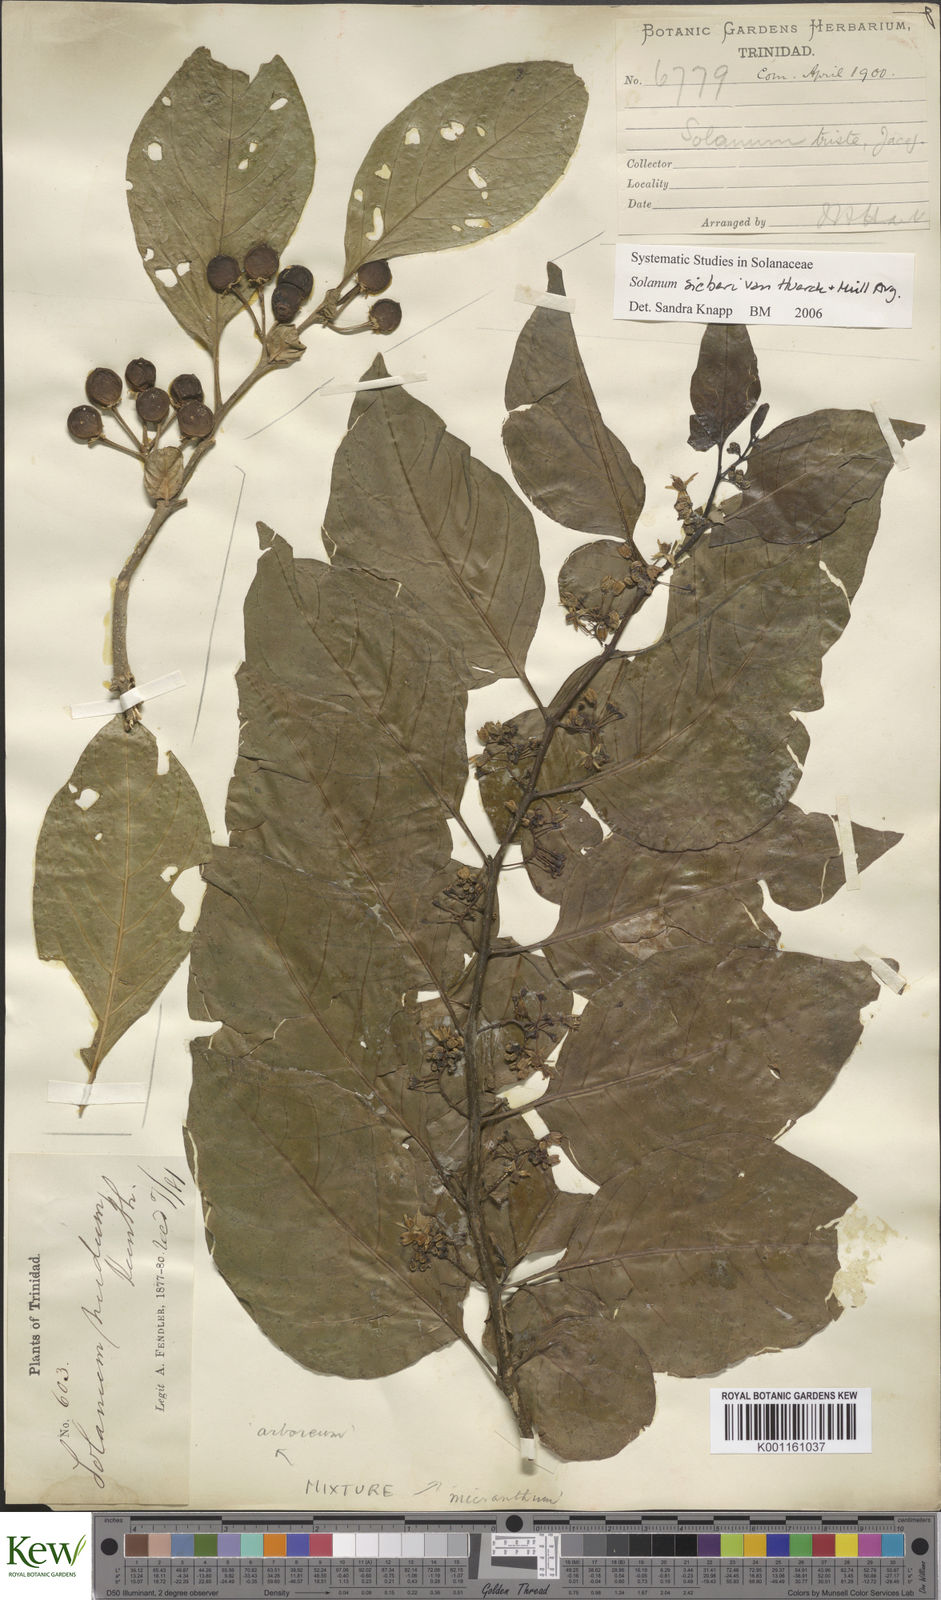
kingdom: Plantae
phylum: Tracheophyta
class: Magnoliopsida
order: Solanales
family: Solanaceae
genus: Solanum
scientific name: Solanum nudum
